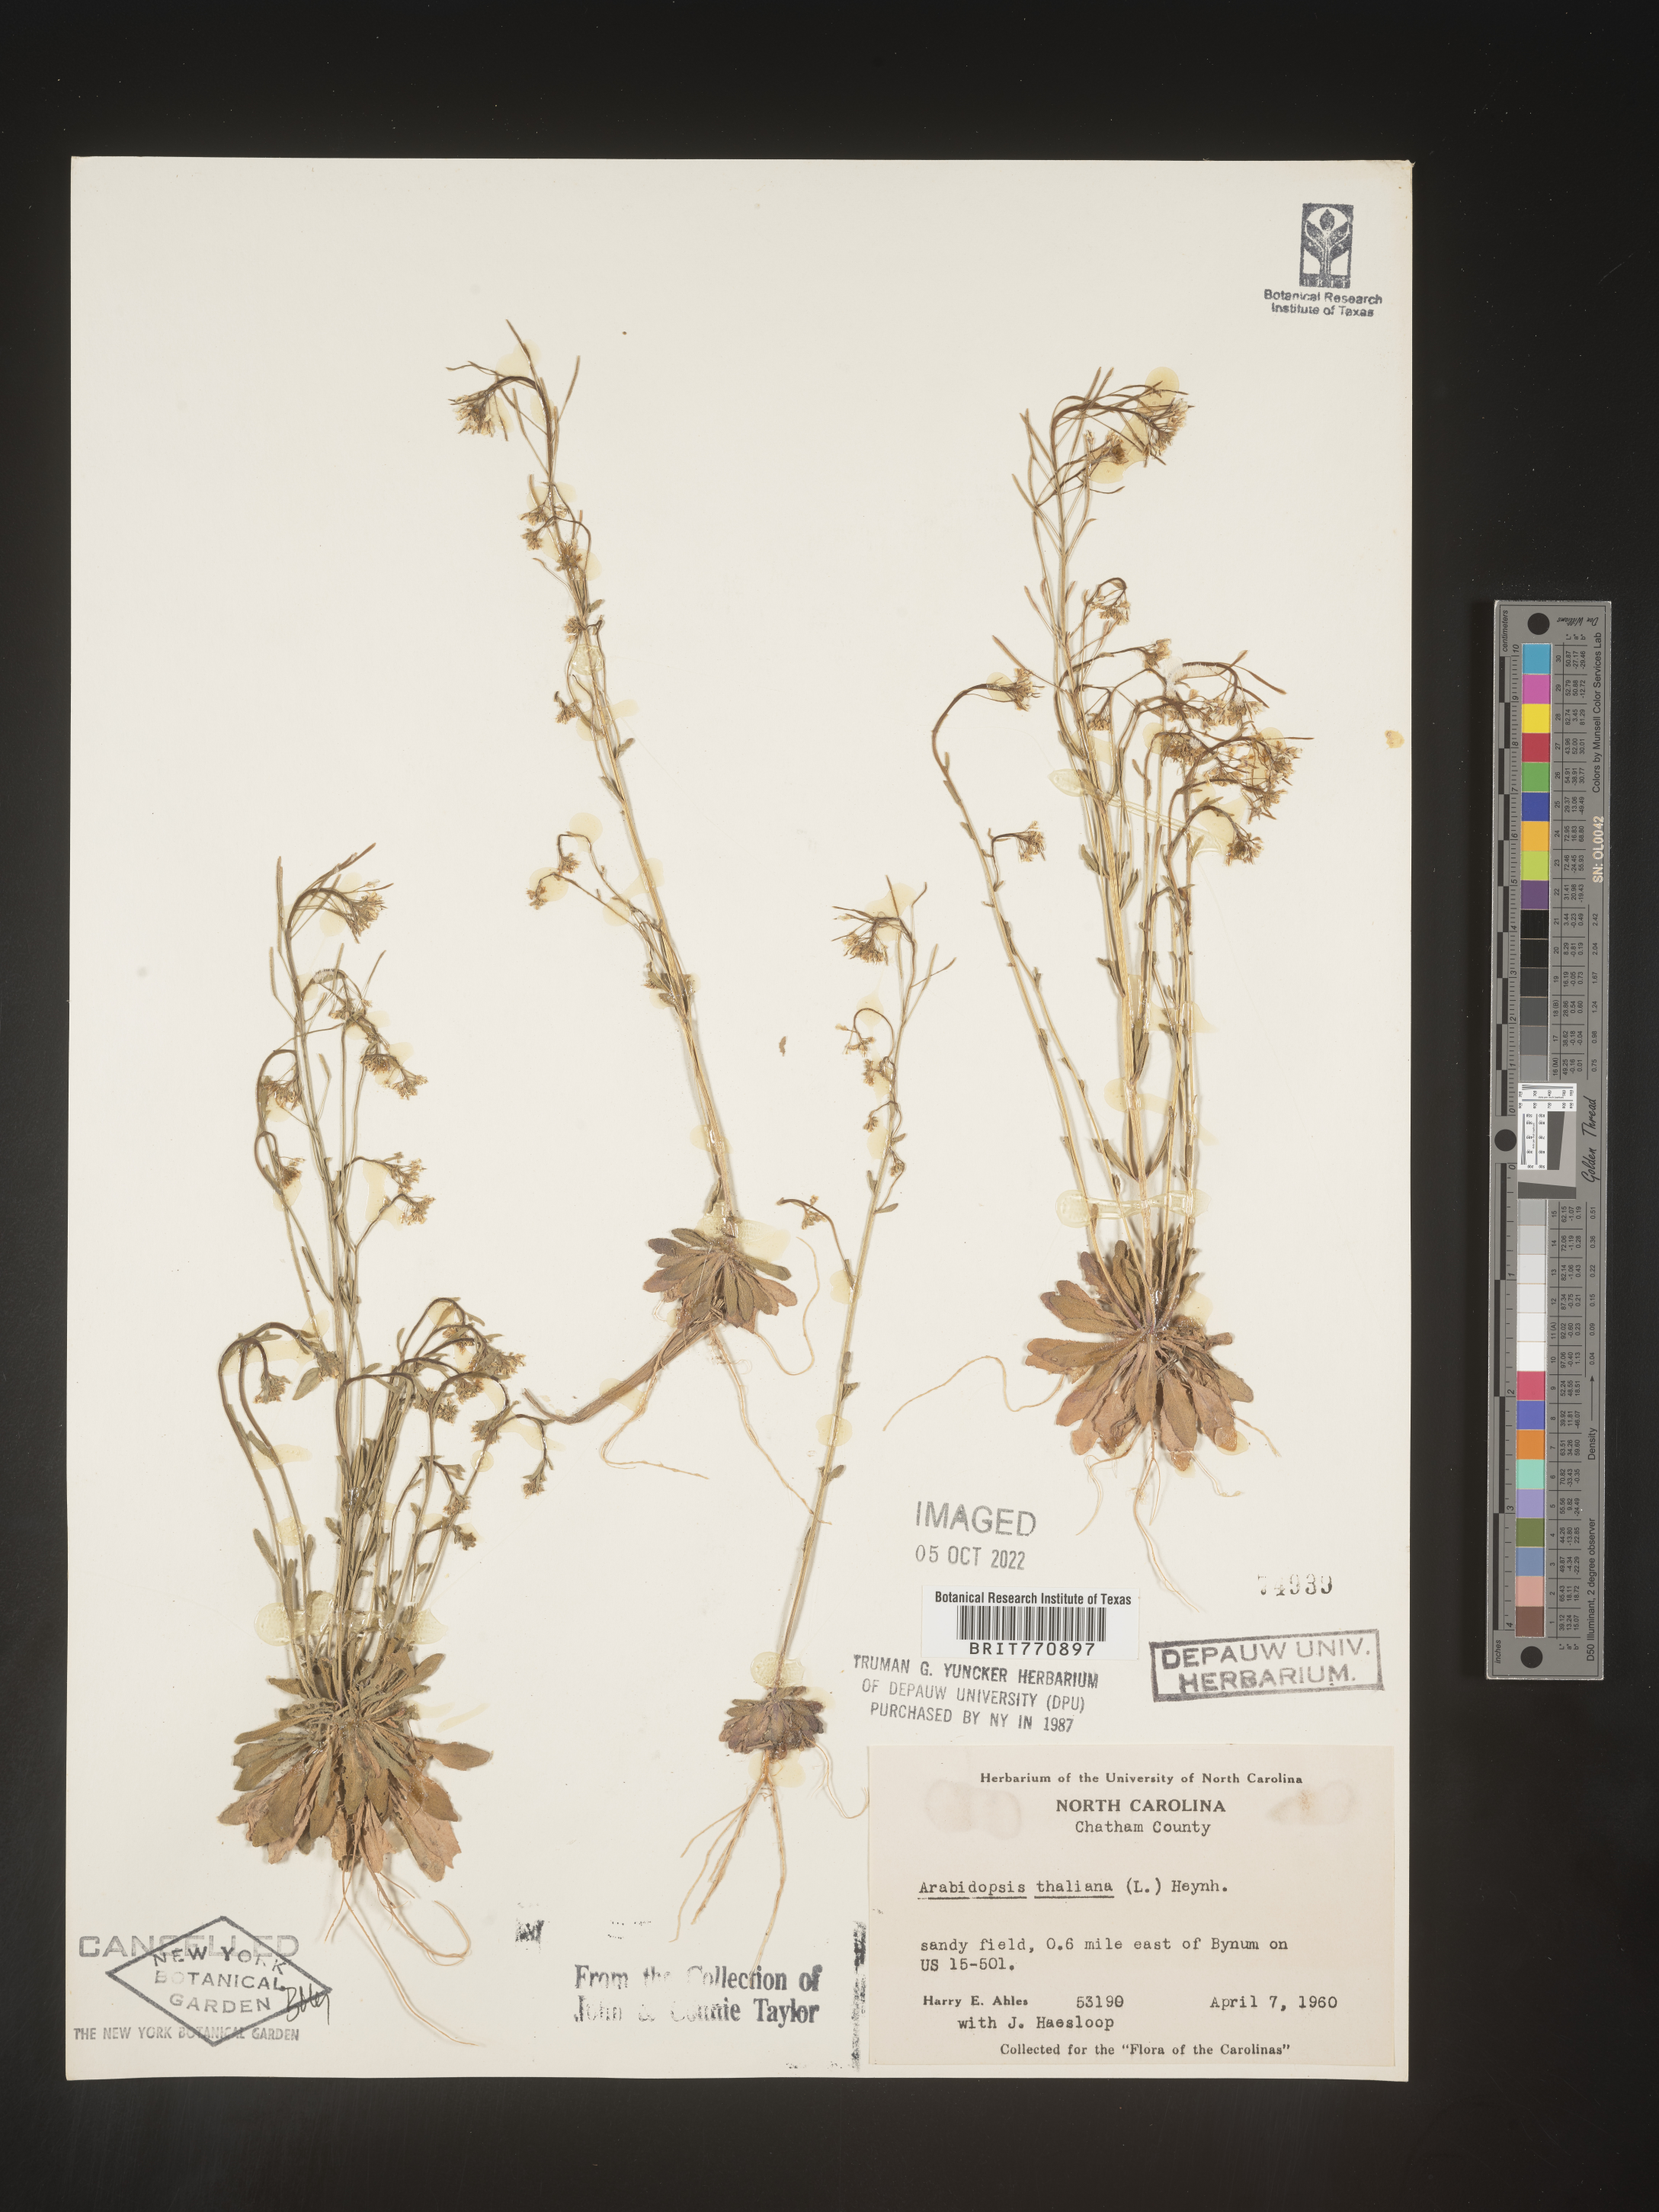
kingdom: Plantae
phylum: Tracheophyta
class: Magnoliopsida
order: Brassicales
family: Brassicaceae
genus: Arabidopsis
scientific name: Arabidopsis thaliana
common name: Thale cress
